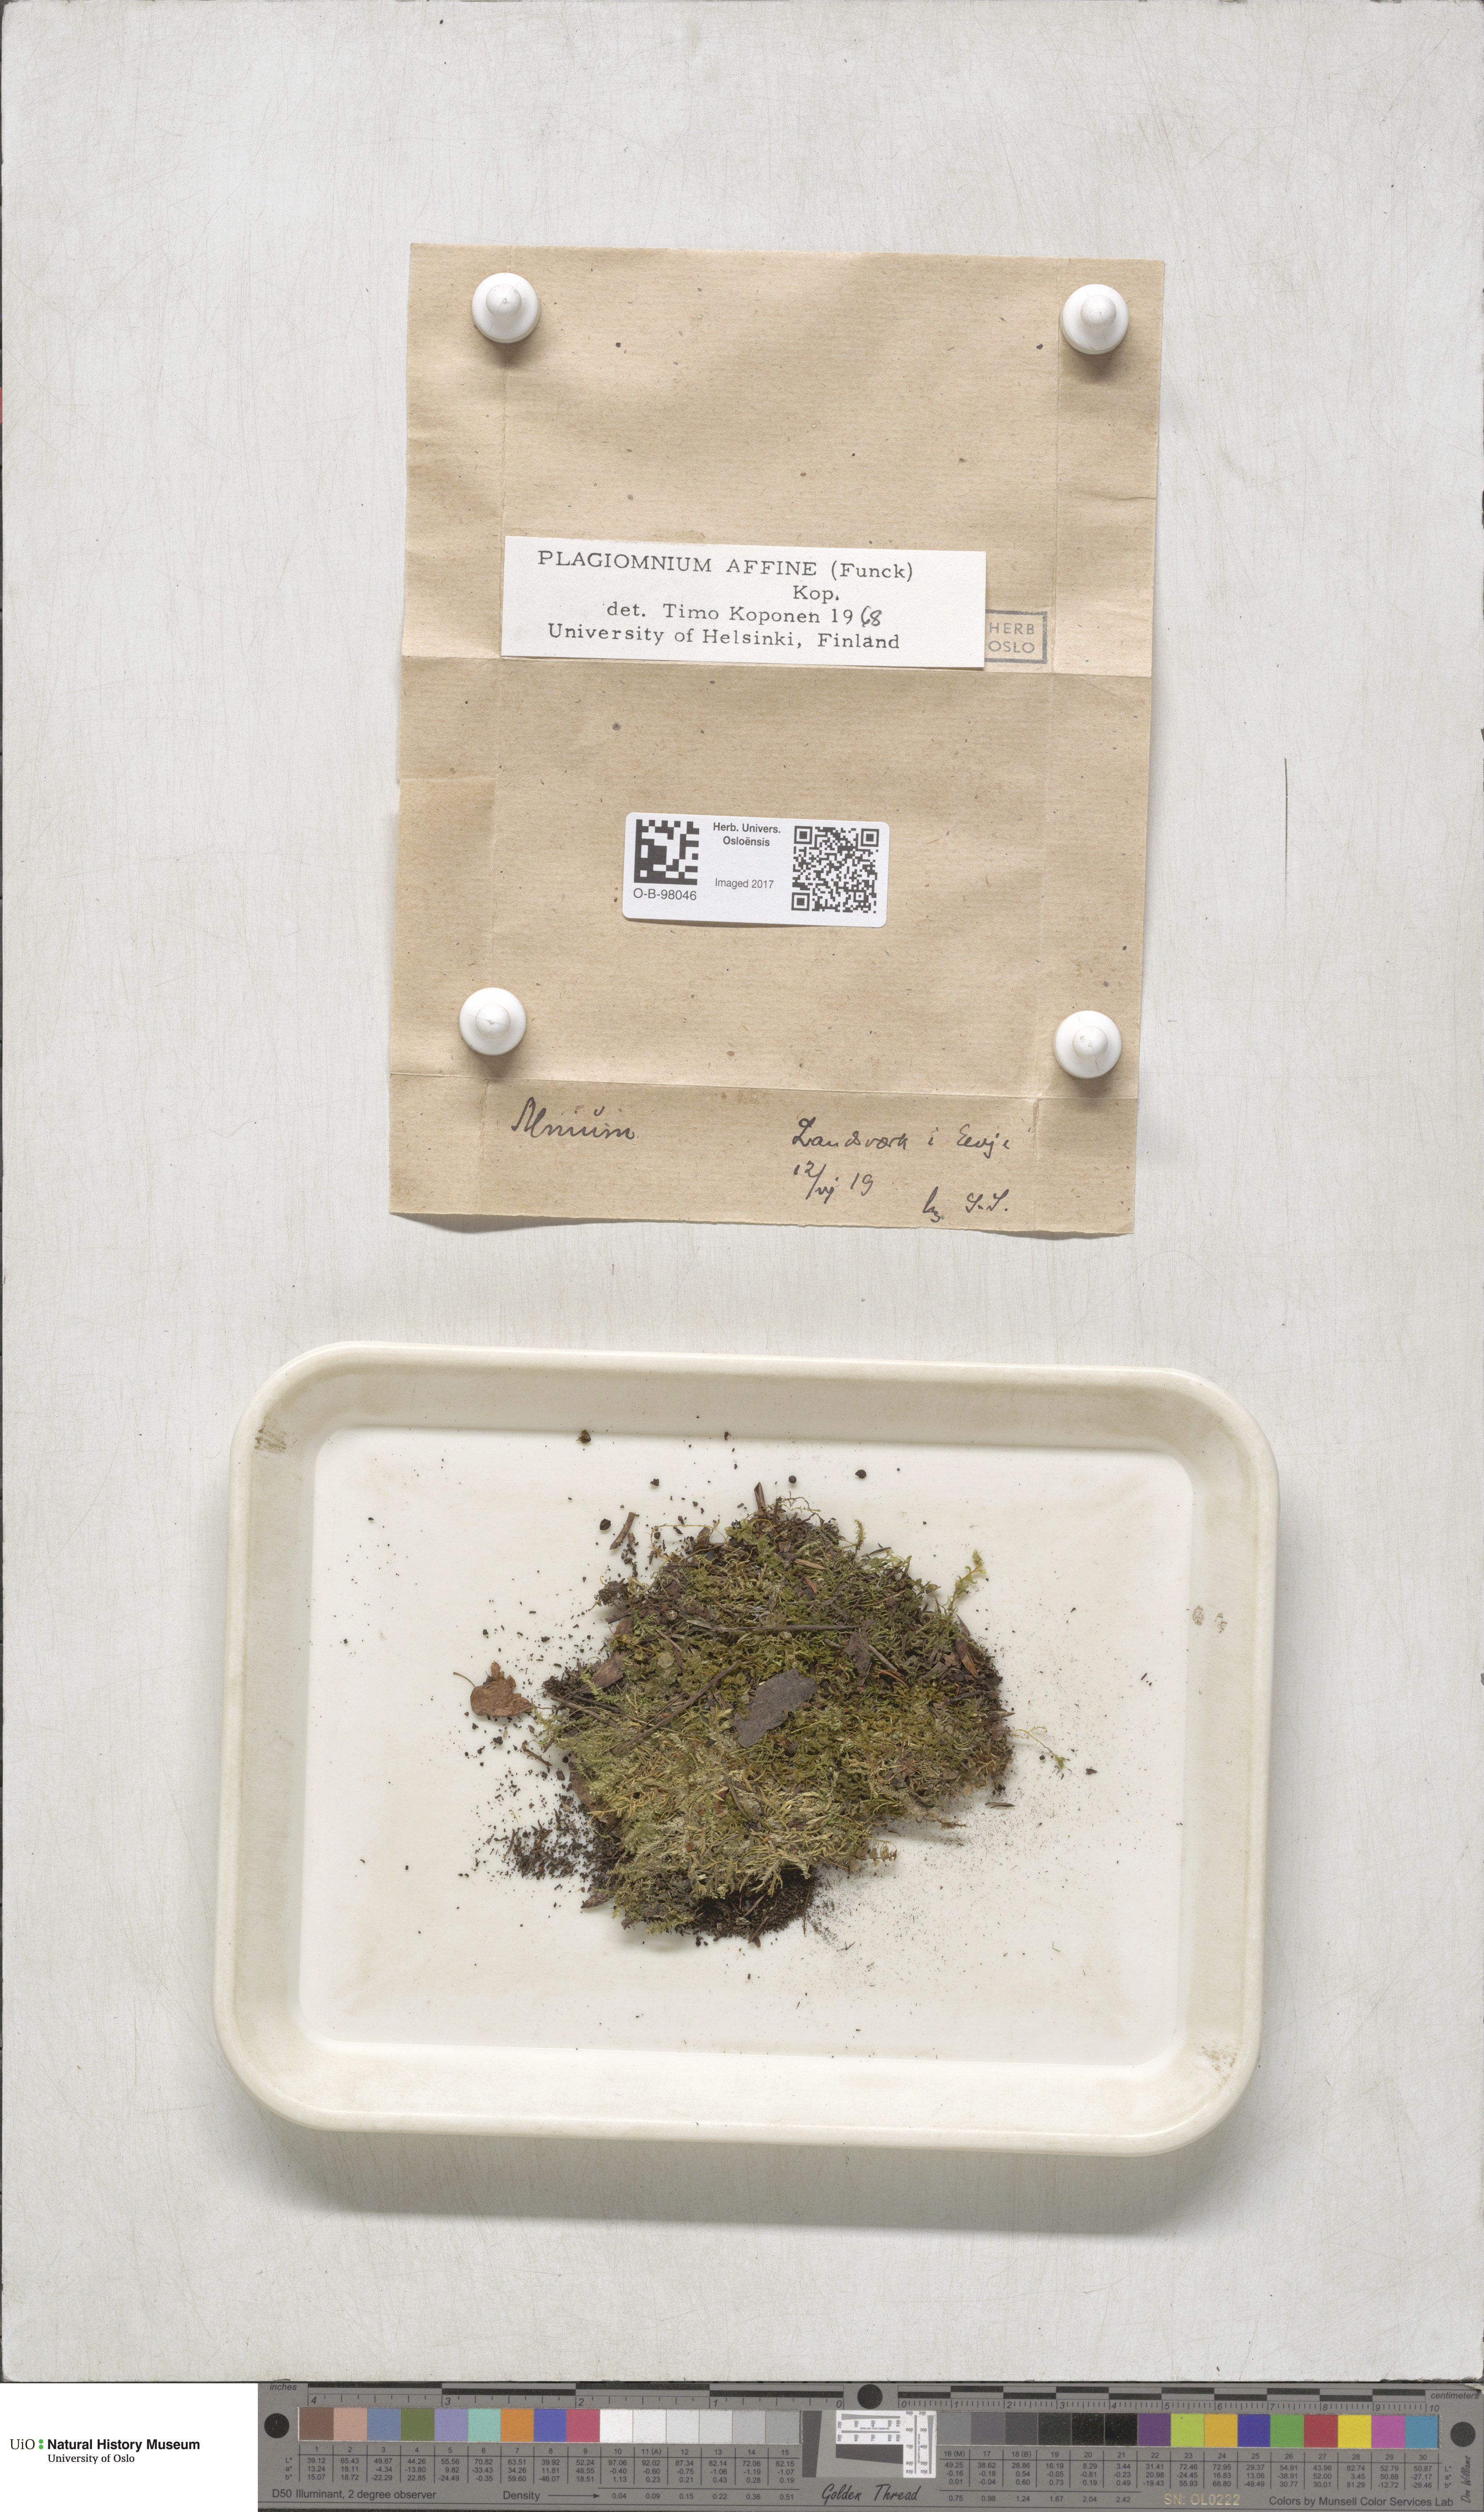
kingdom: Plantae
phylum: Bryophyta
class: Bryopsida
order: Bryales
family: Mniaceae
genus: Plagiomnium
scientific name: Plagiomnium affine
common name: Many-fruited thyme-moss
